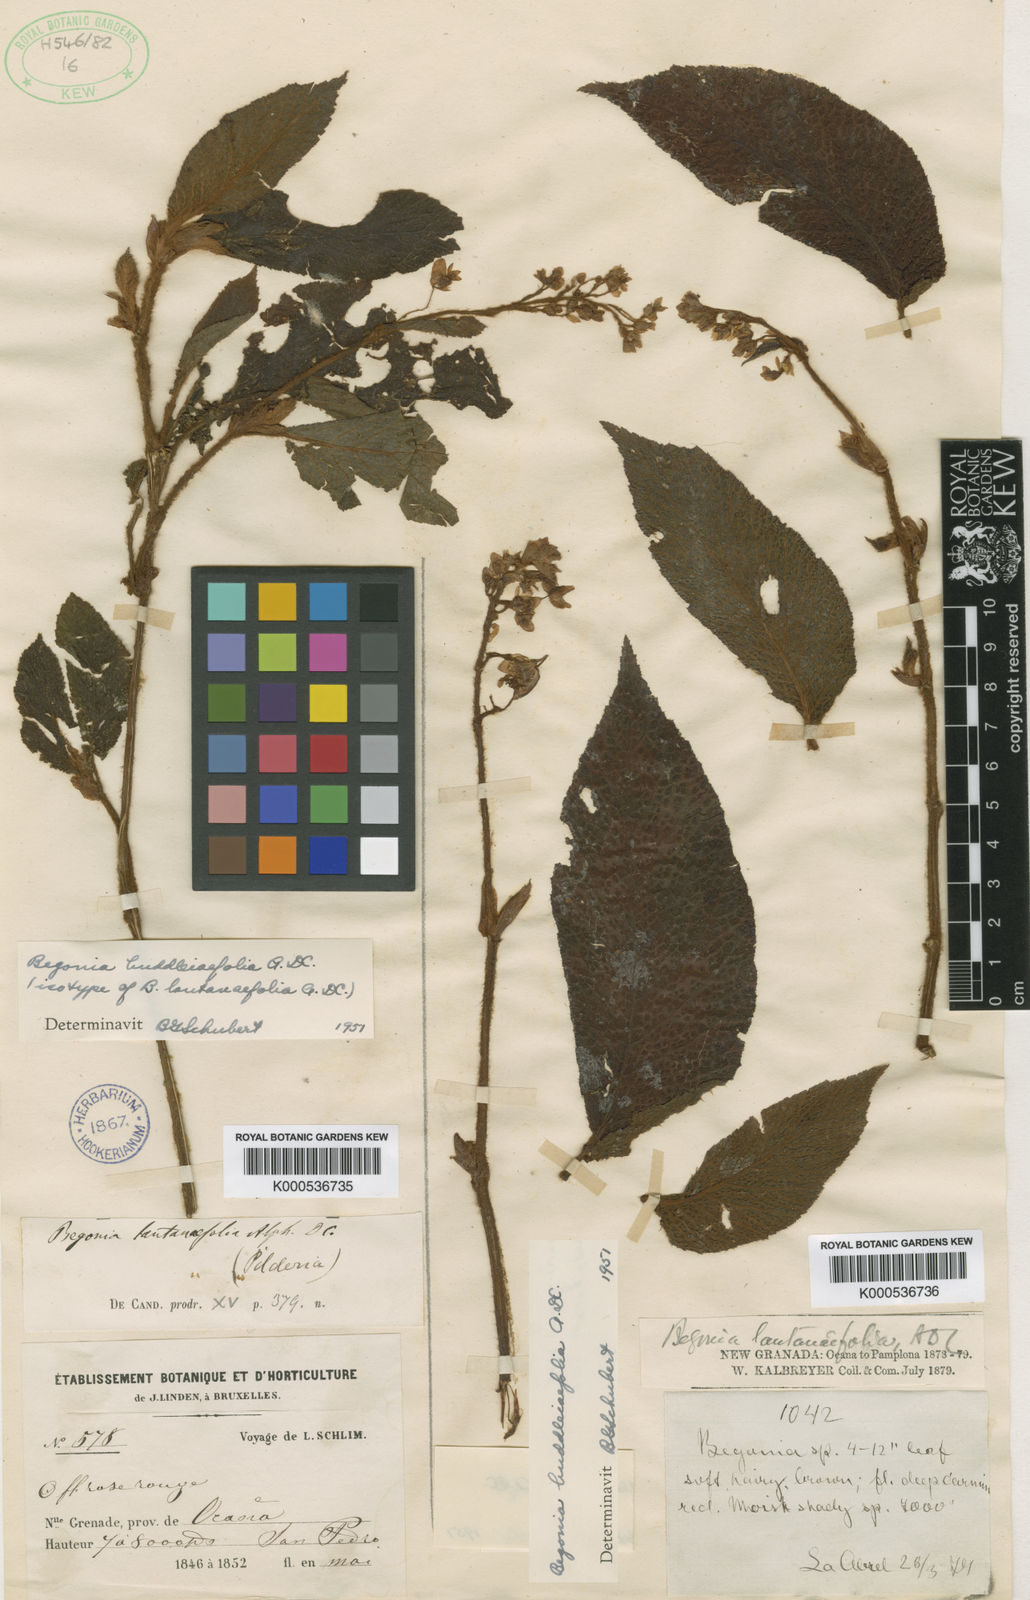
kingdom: Plantae
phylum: Tracheophyta
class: Magnoliopsida
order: Cucurbitales
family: Begoniaceae
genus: Begonia
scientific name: Begonia buddleiifolia
